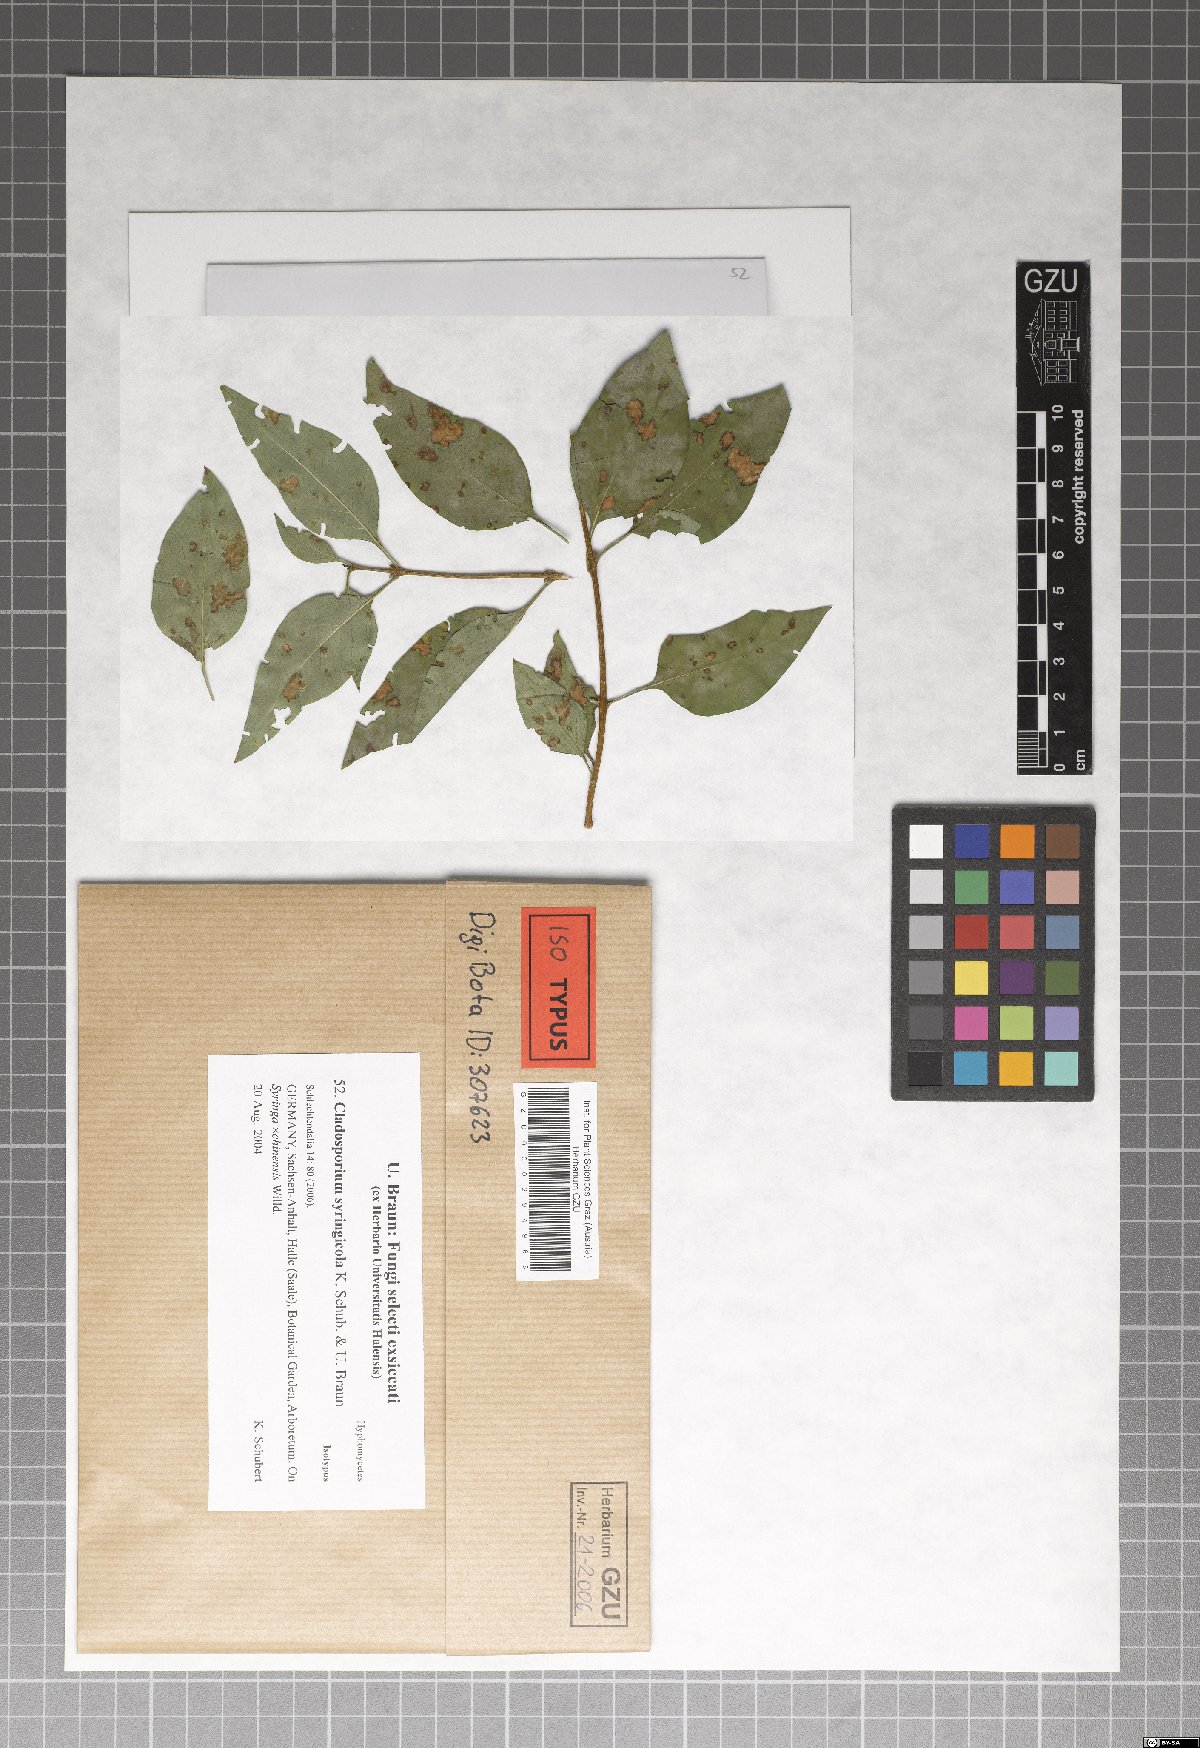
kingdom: Fungi
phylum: Ascomycota
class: Dothideomycetes
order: Capnodiales
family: Cladosporiaceae
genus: Cladosporium
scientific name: Cladosporium syringicola
